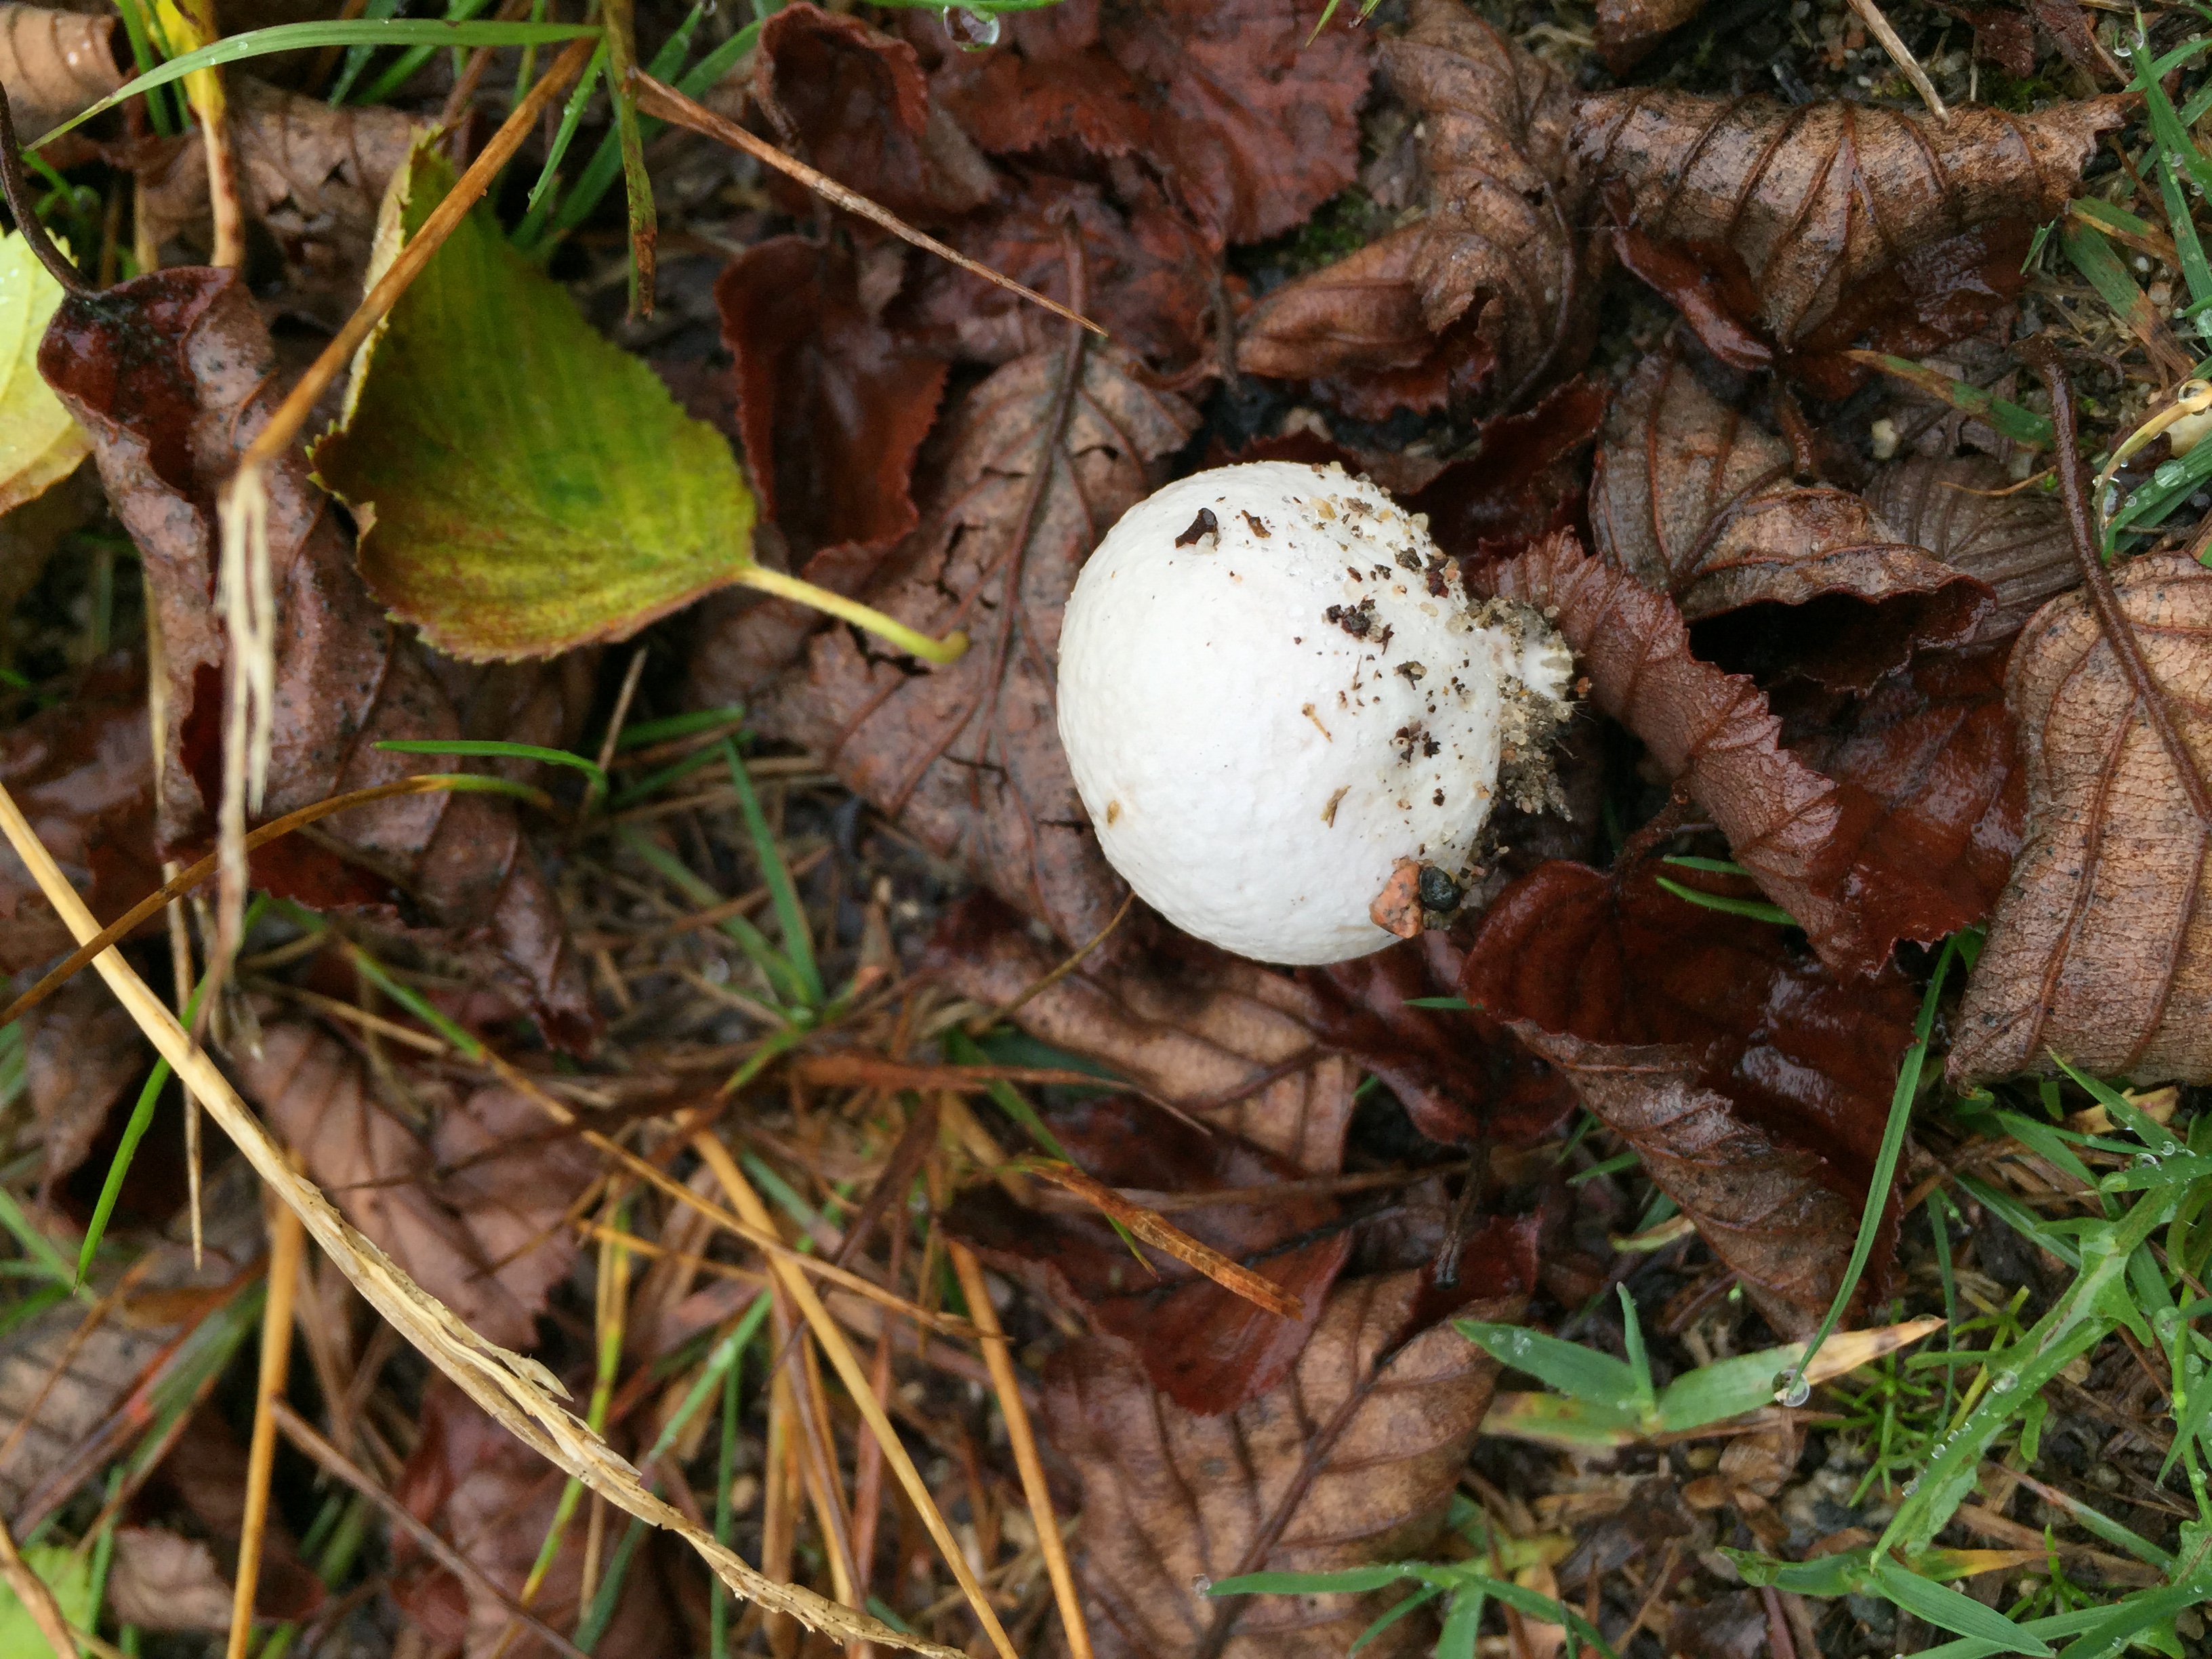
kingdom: Fungi
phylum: Basidiomycota
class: Agaricomycetes
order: Agaricales
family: Lycoperdaceae
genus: Bovista
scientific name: Bovista nigrescens
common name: Brown puffball
